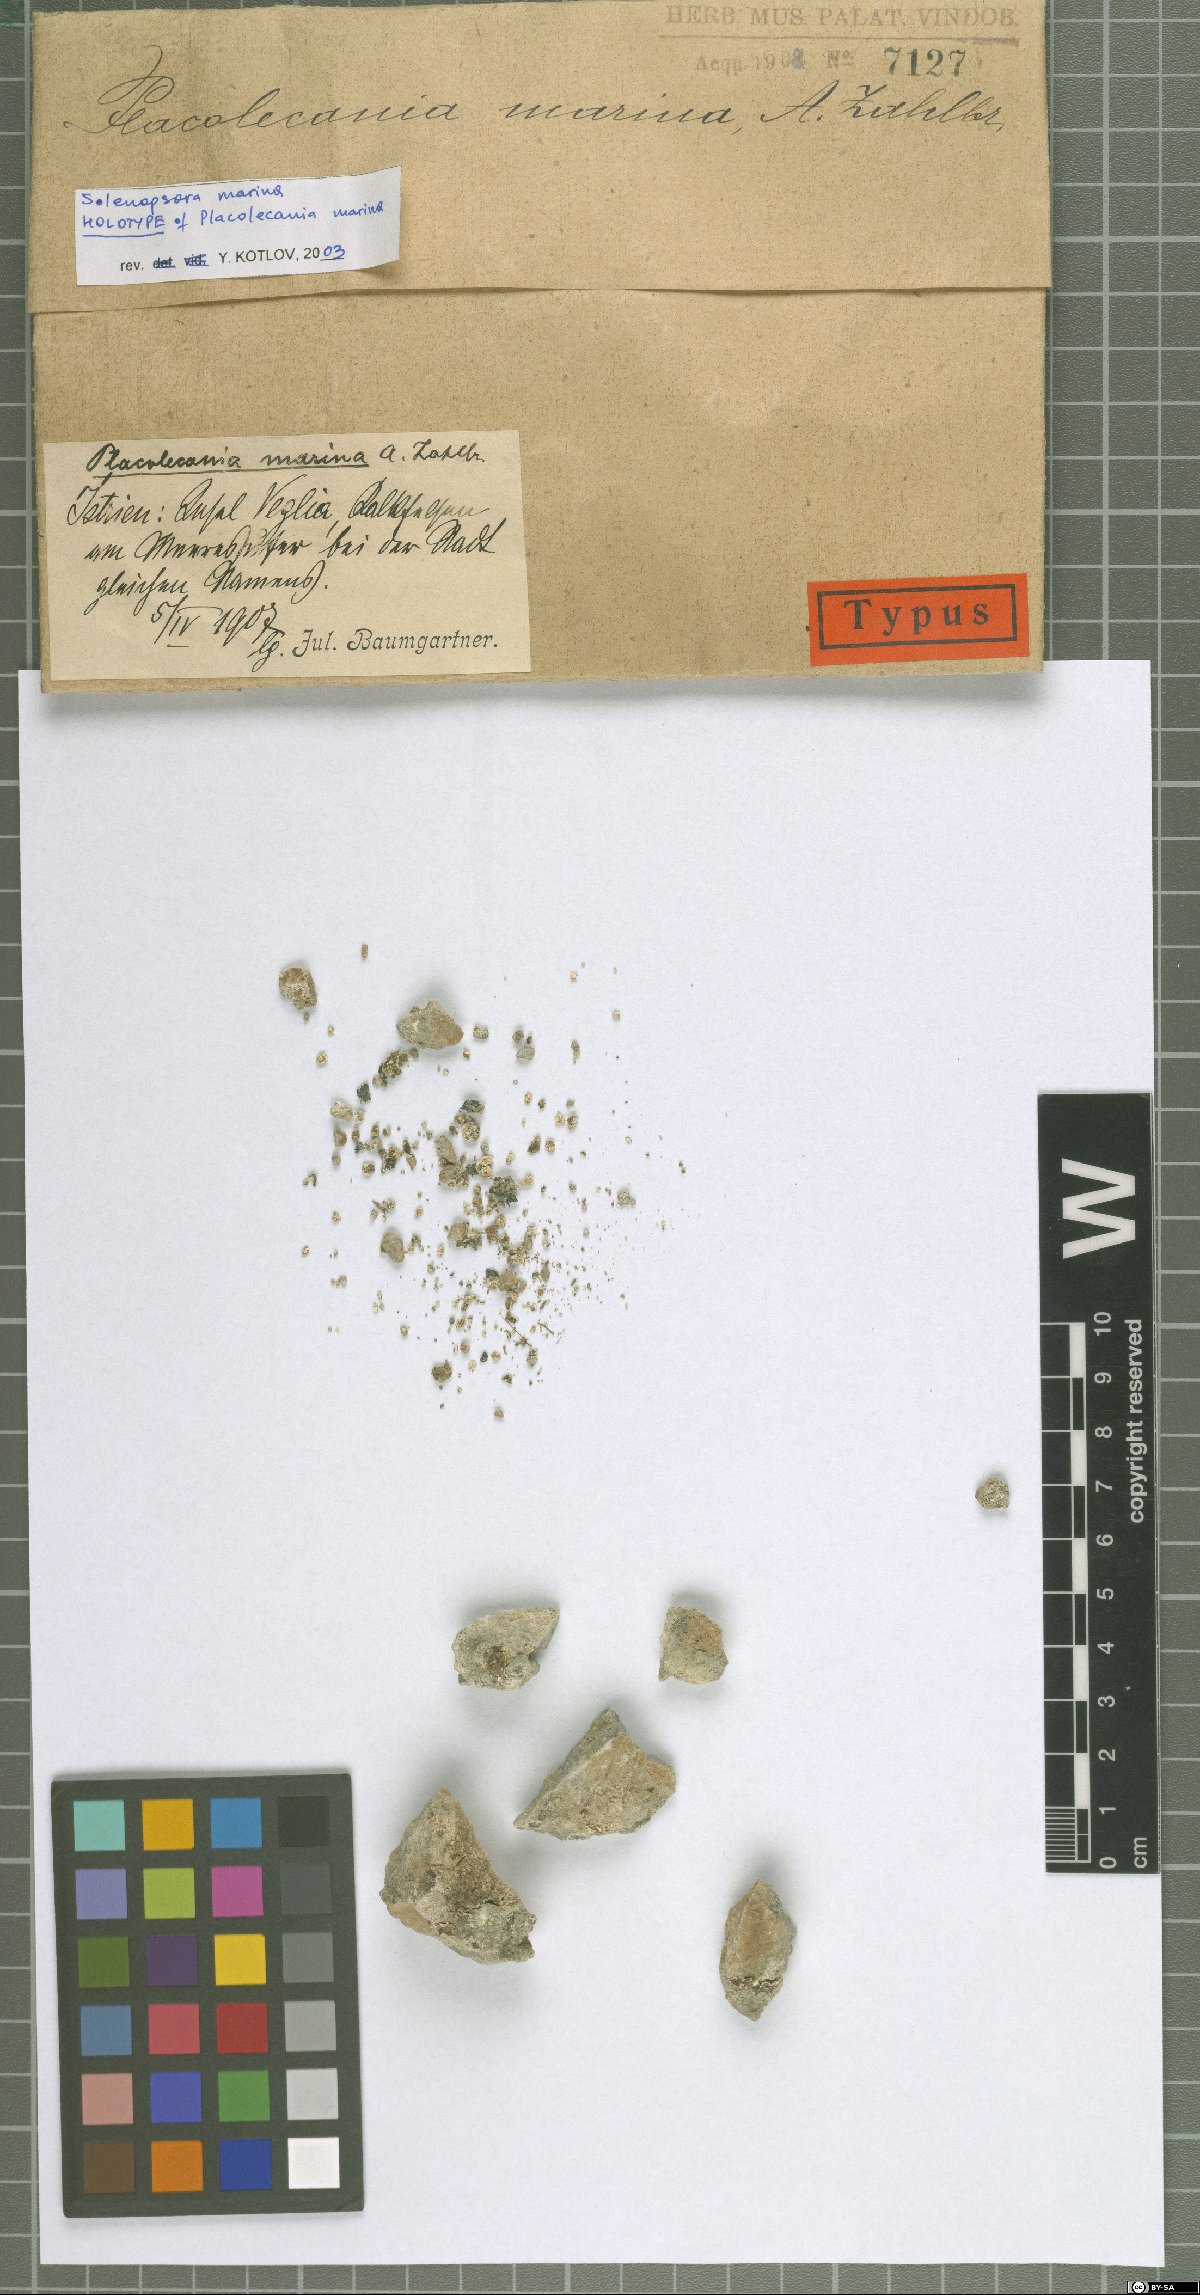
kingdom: Fungi
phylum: Ascomycota
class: Lecanoromycetes
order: Lecanorales
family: Catillariaceae
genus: Solenopsora
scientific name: Solenopsora marina
